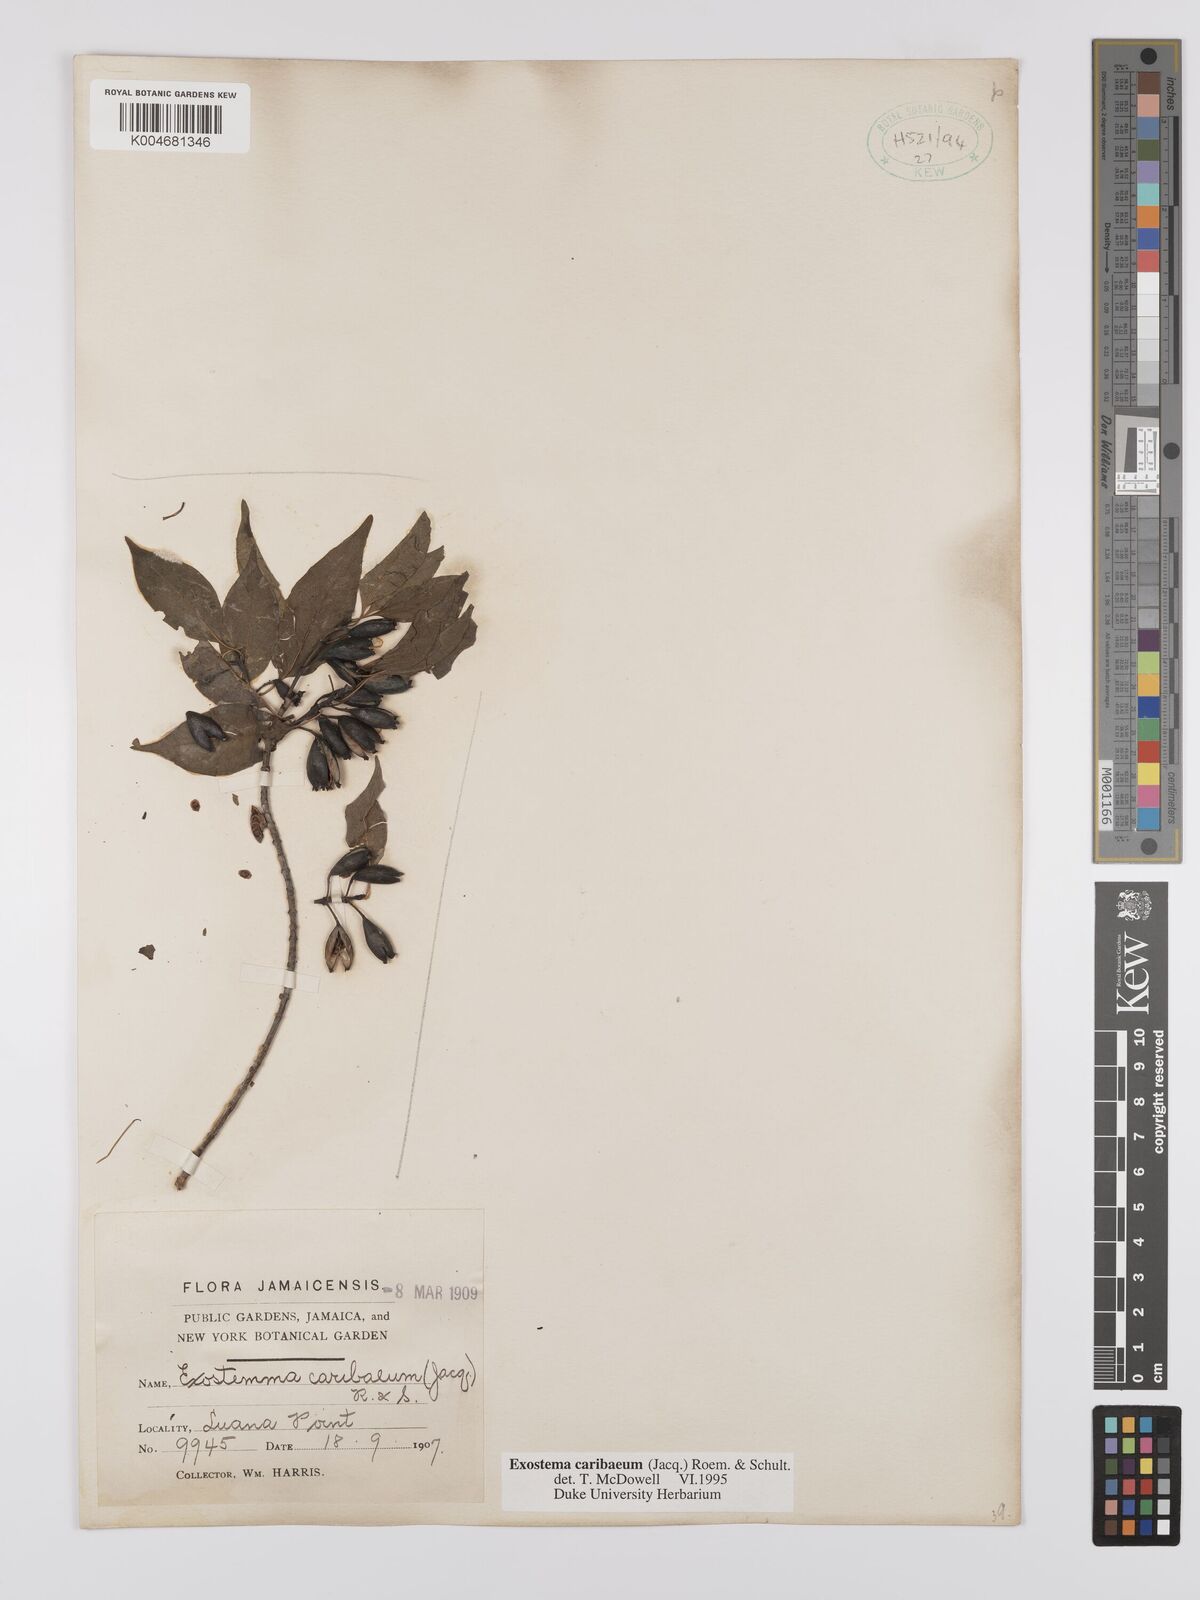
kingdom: Plantae
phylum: Tracheophyta
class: Magnoliopsida
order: Gentianales
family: Rubiaceae
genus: Exostema
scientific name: Exostema caribaeum
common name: Princewood
